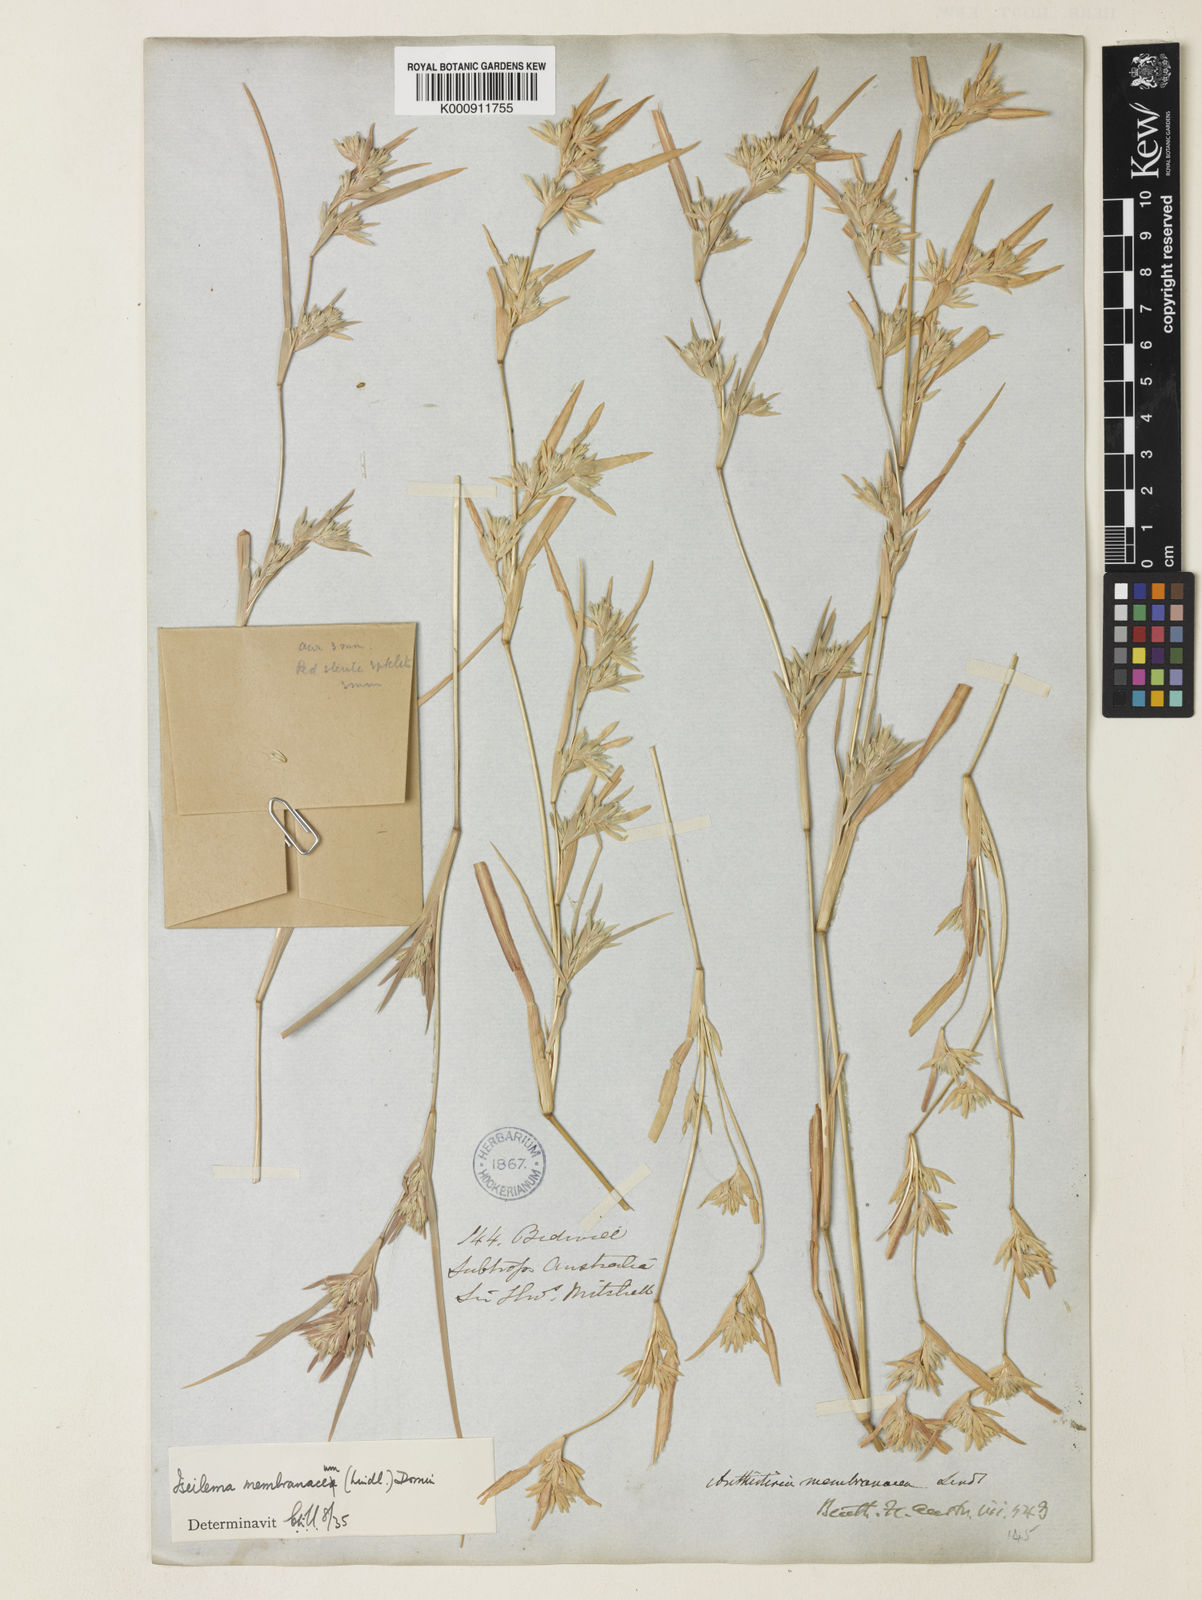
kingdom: Plantae
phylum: Tracheophyta
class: Liliopsida
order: Poales
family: Poaceae
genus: Iseilema
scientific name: Iseilema membranaceum
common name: Small flinders grass
